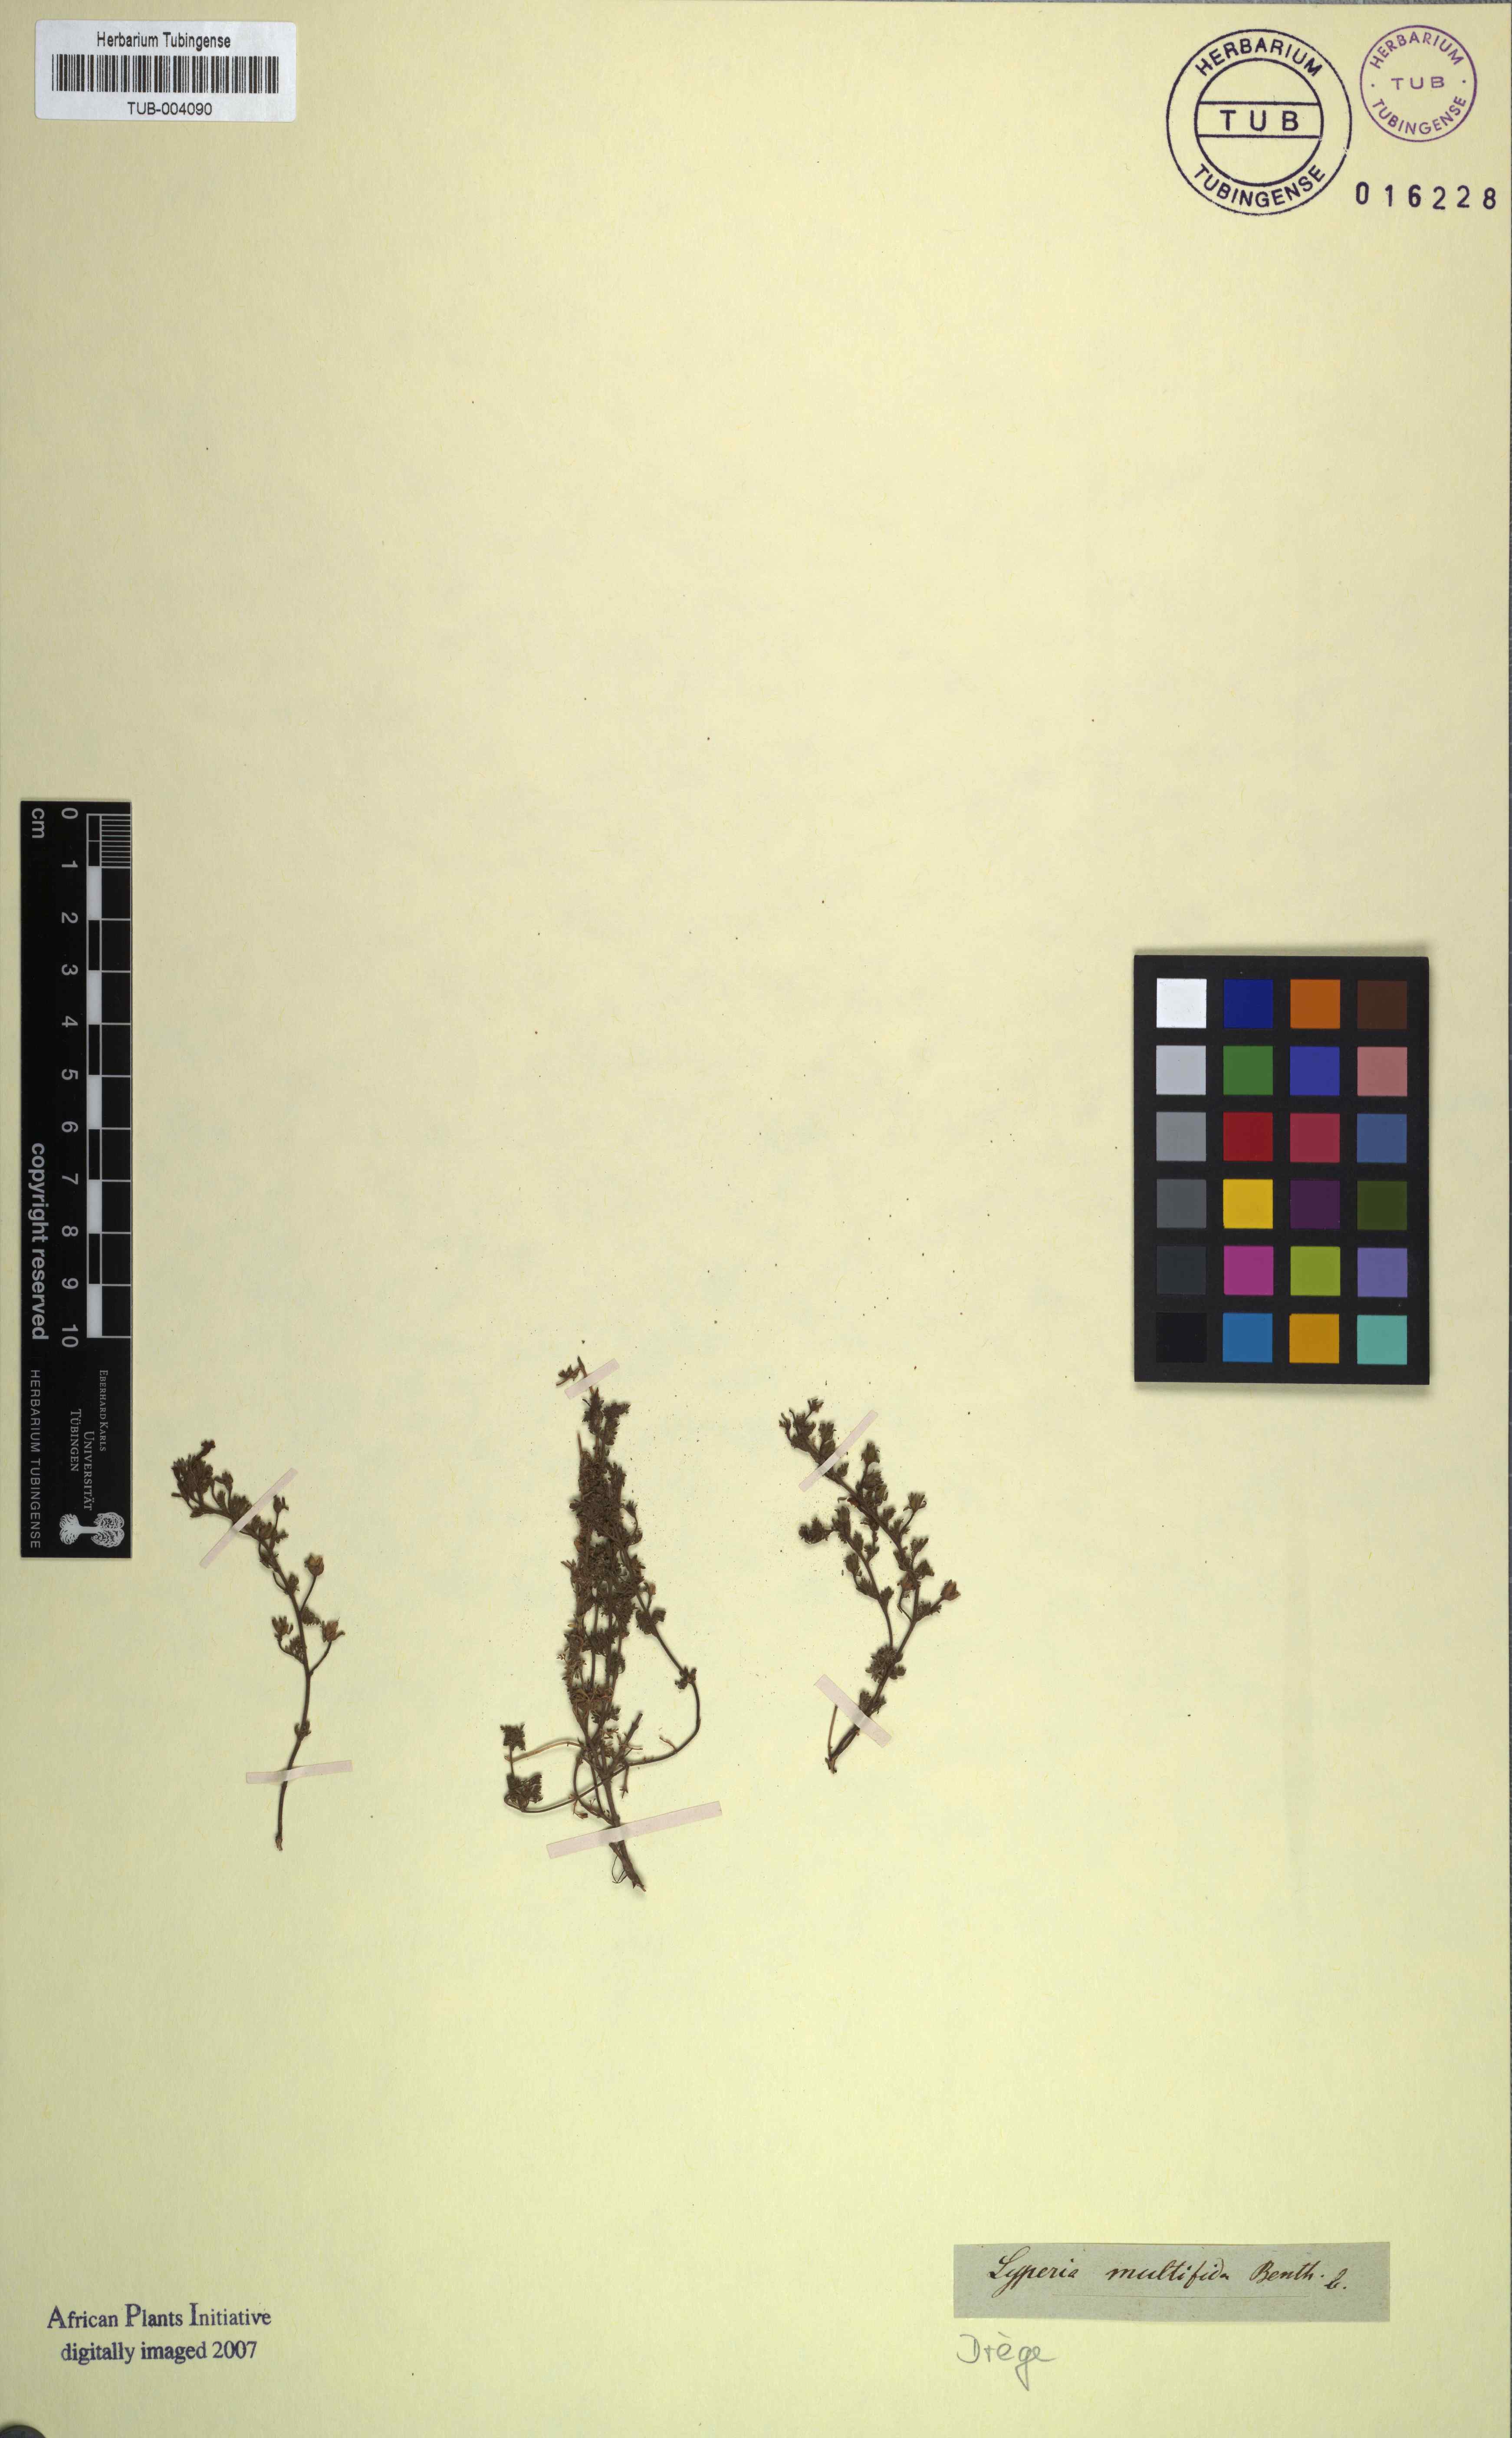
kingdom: Plantae
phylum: Tracheophyta
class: Magnoliopsida
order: Lamiales
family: Scrophulariaceae
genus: Jamesbrittenia
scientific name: Jamesbrittenia aurantiaca
